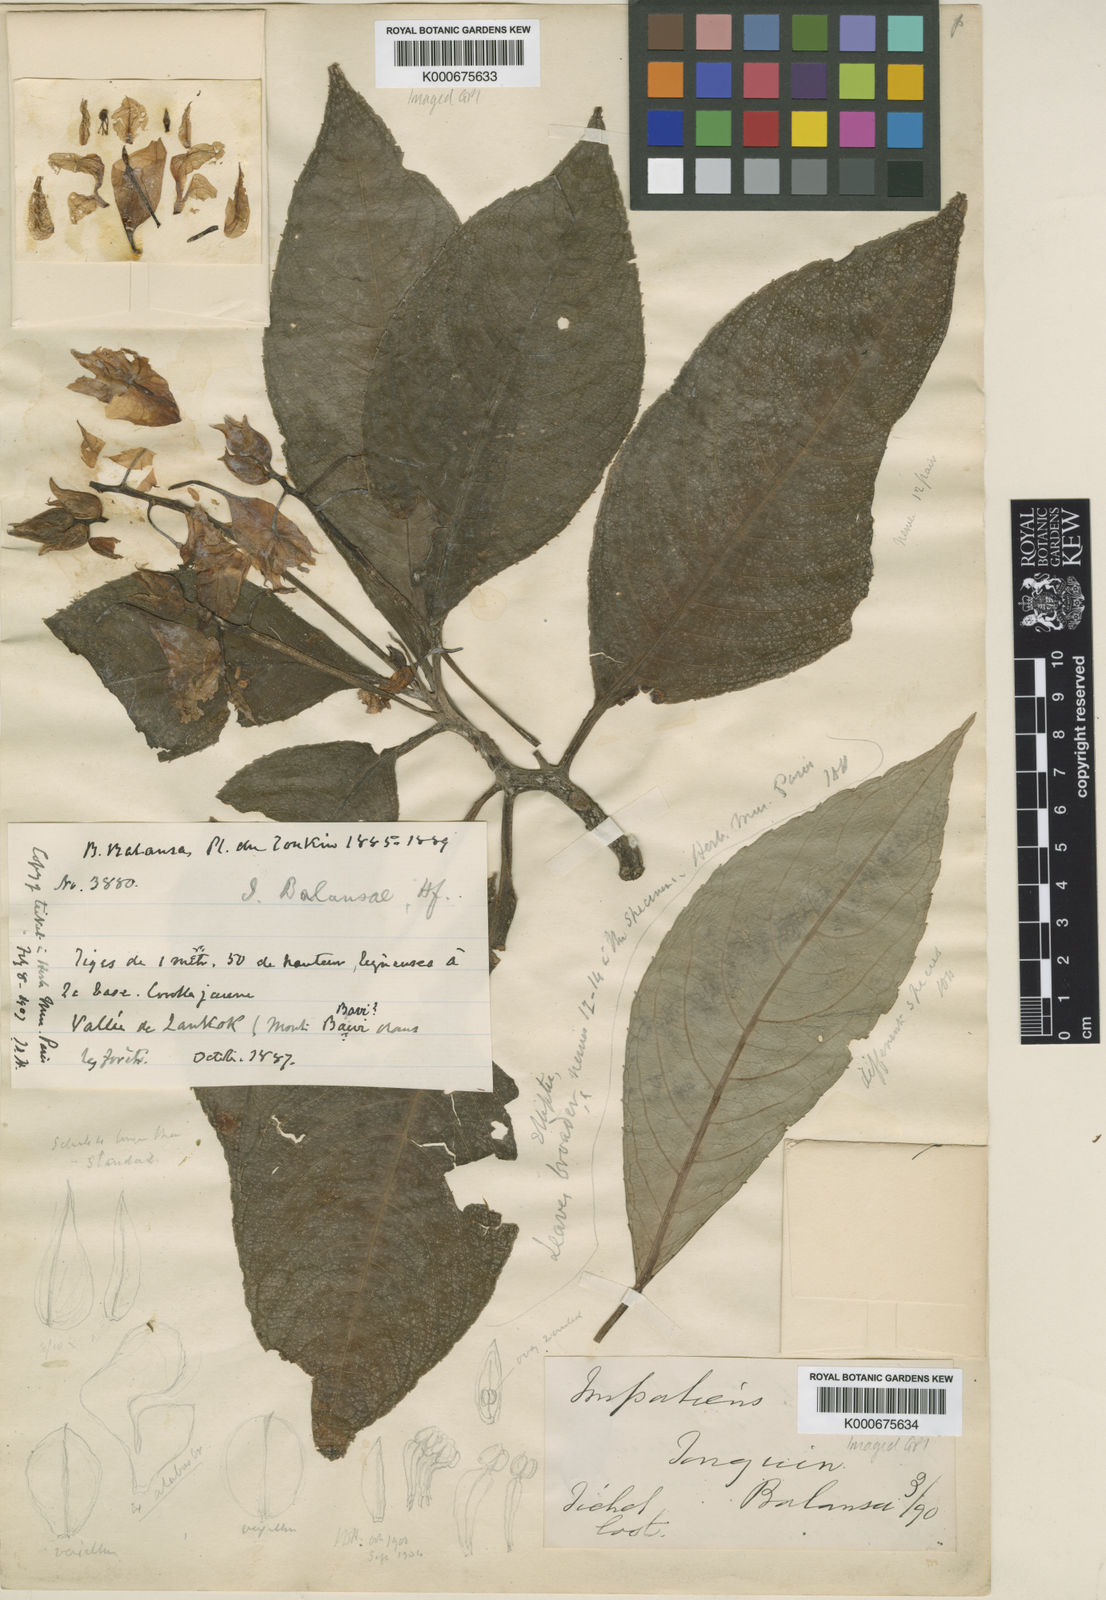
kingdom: Plantae
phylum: Tracheophyta
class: Magnoliopsida
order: Ericales
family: Balsaminaceae
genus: Impatiens
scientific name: Impatiens balansae
